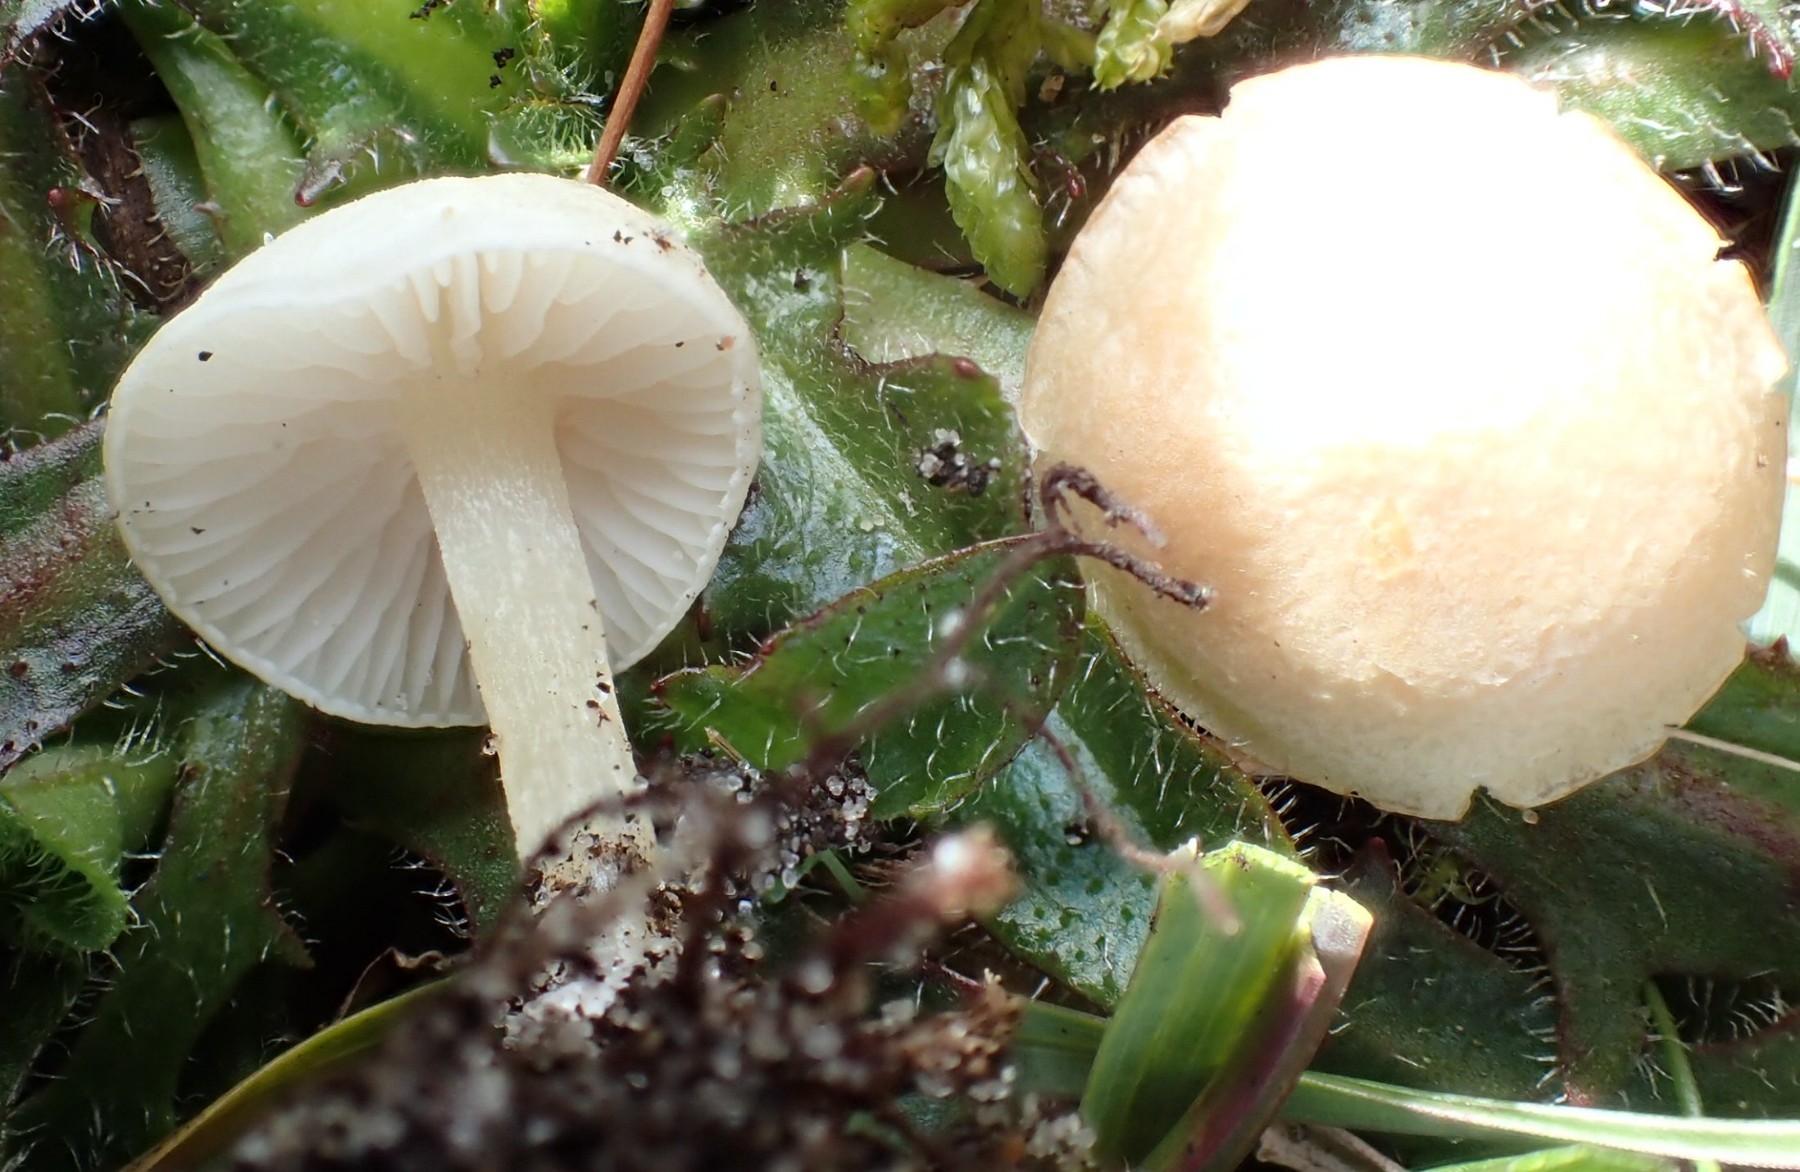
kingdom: Fungi
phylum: Basidiomycota
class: Agaricomycetes
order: Agaricales
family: Entolomataceae
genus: Entoloma
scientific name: Entoloma sericellum
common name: silkehvid rødblad
